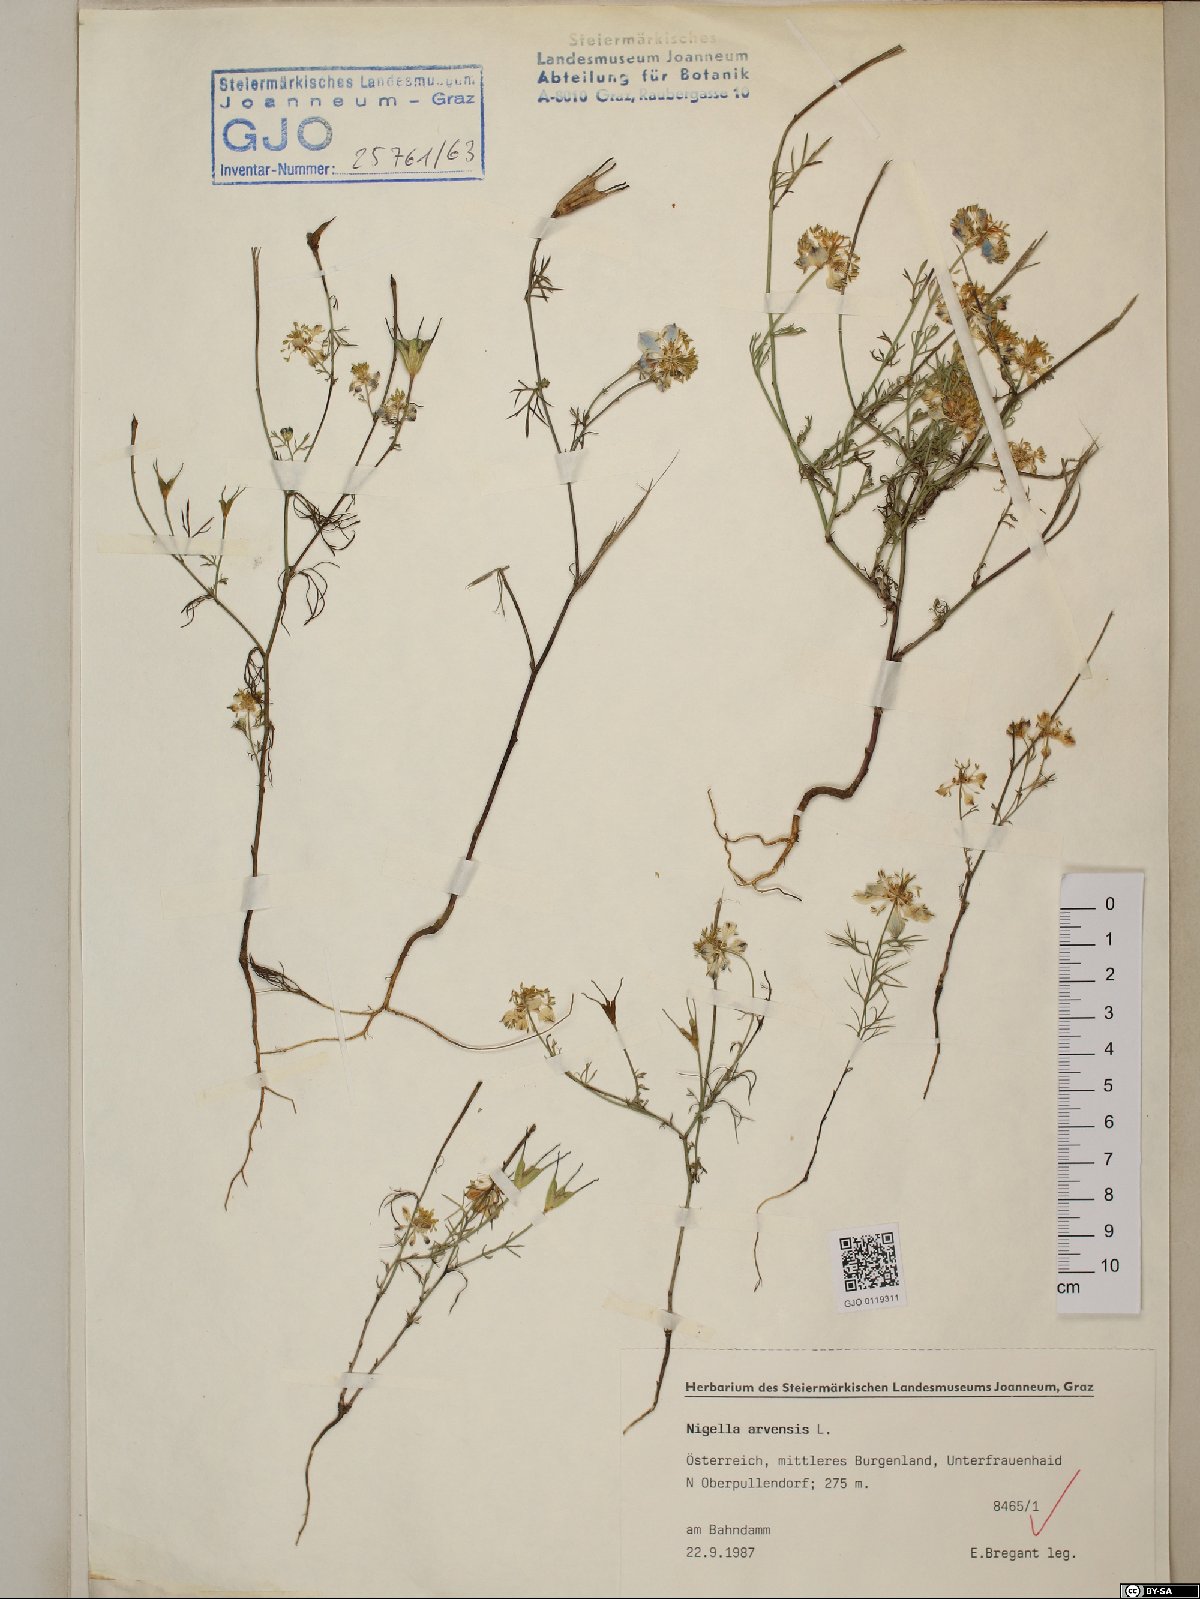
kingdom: Plantae
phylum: Tracheophyta
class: Magnoliopsida
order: Ranunculales
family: Ranunculaceae
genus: Nigella
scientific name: Nigella arvensis
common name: Wild fennel-flower
